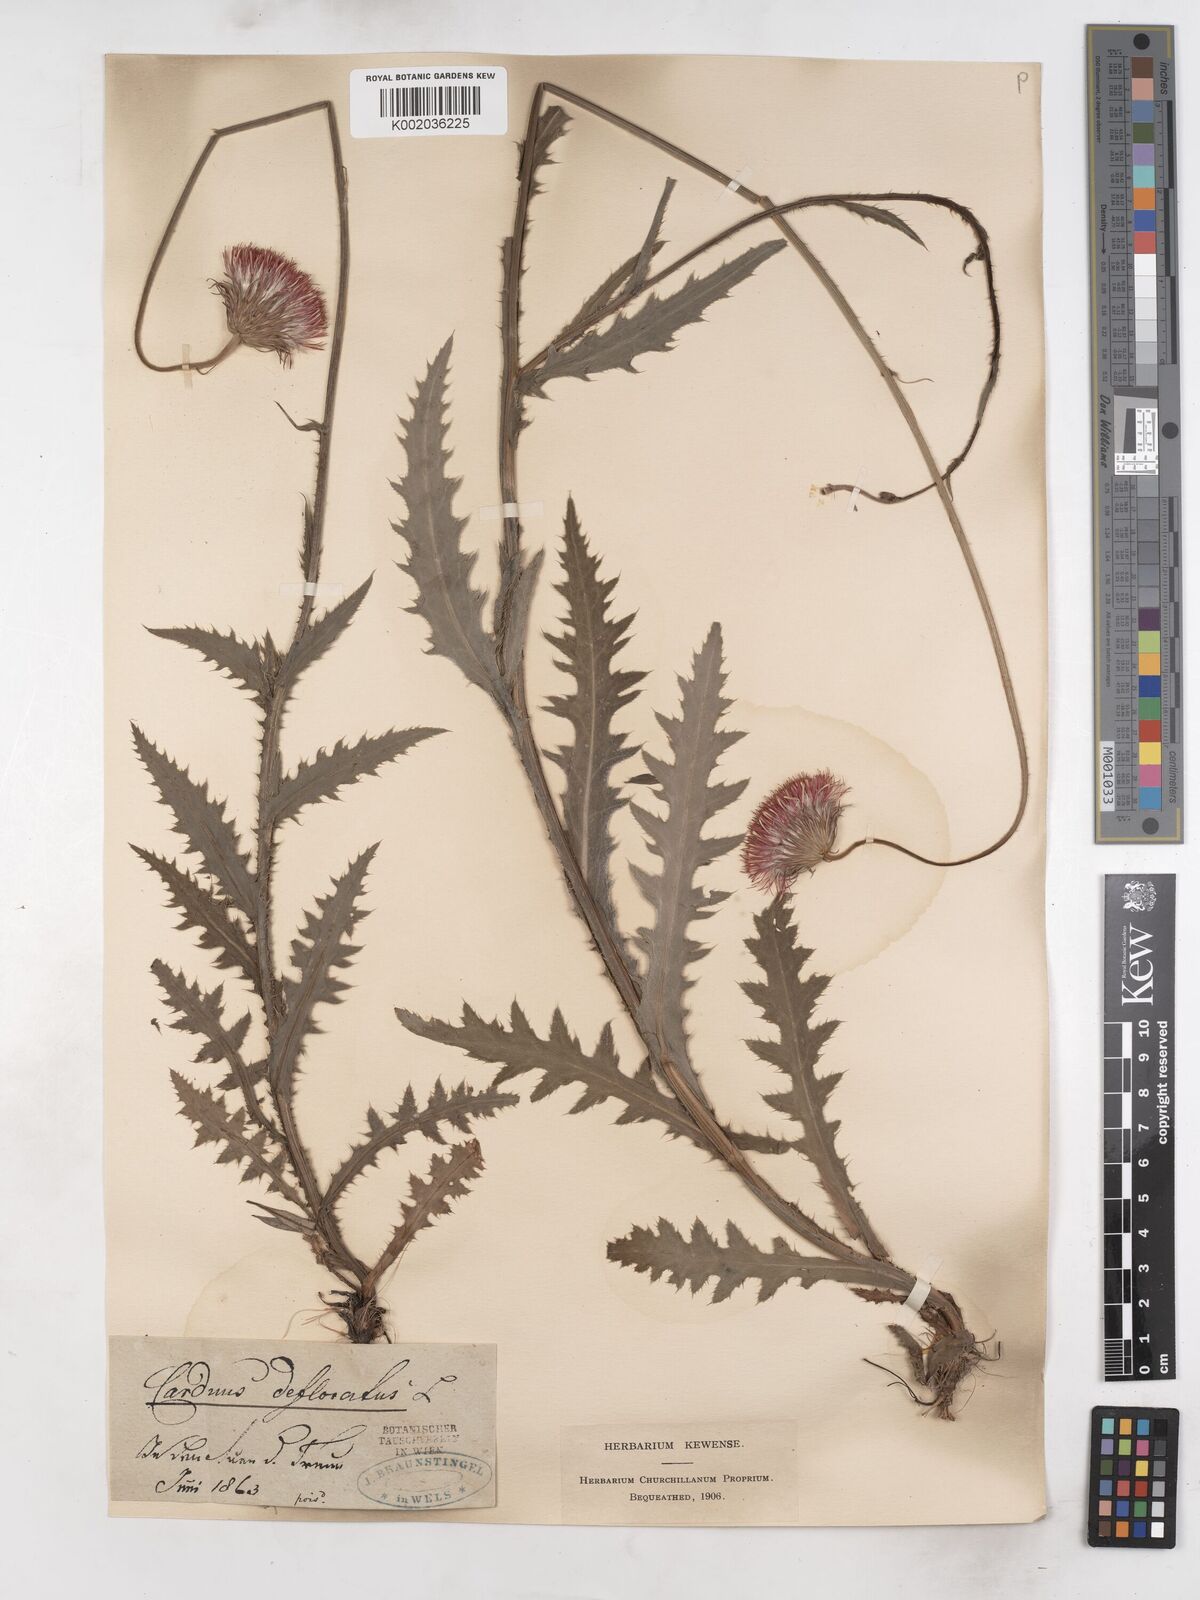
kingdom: Plantae
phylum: Tracheophyta
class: Magnoliopsida
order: Asterales
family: Asteraceae
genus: Carduus
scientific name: Carduus defloratus
